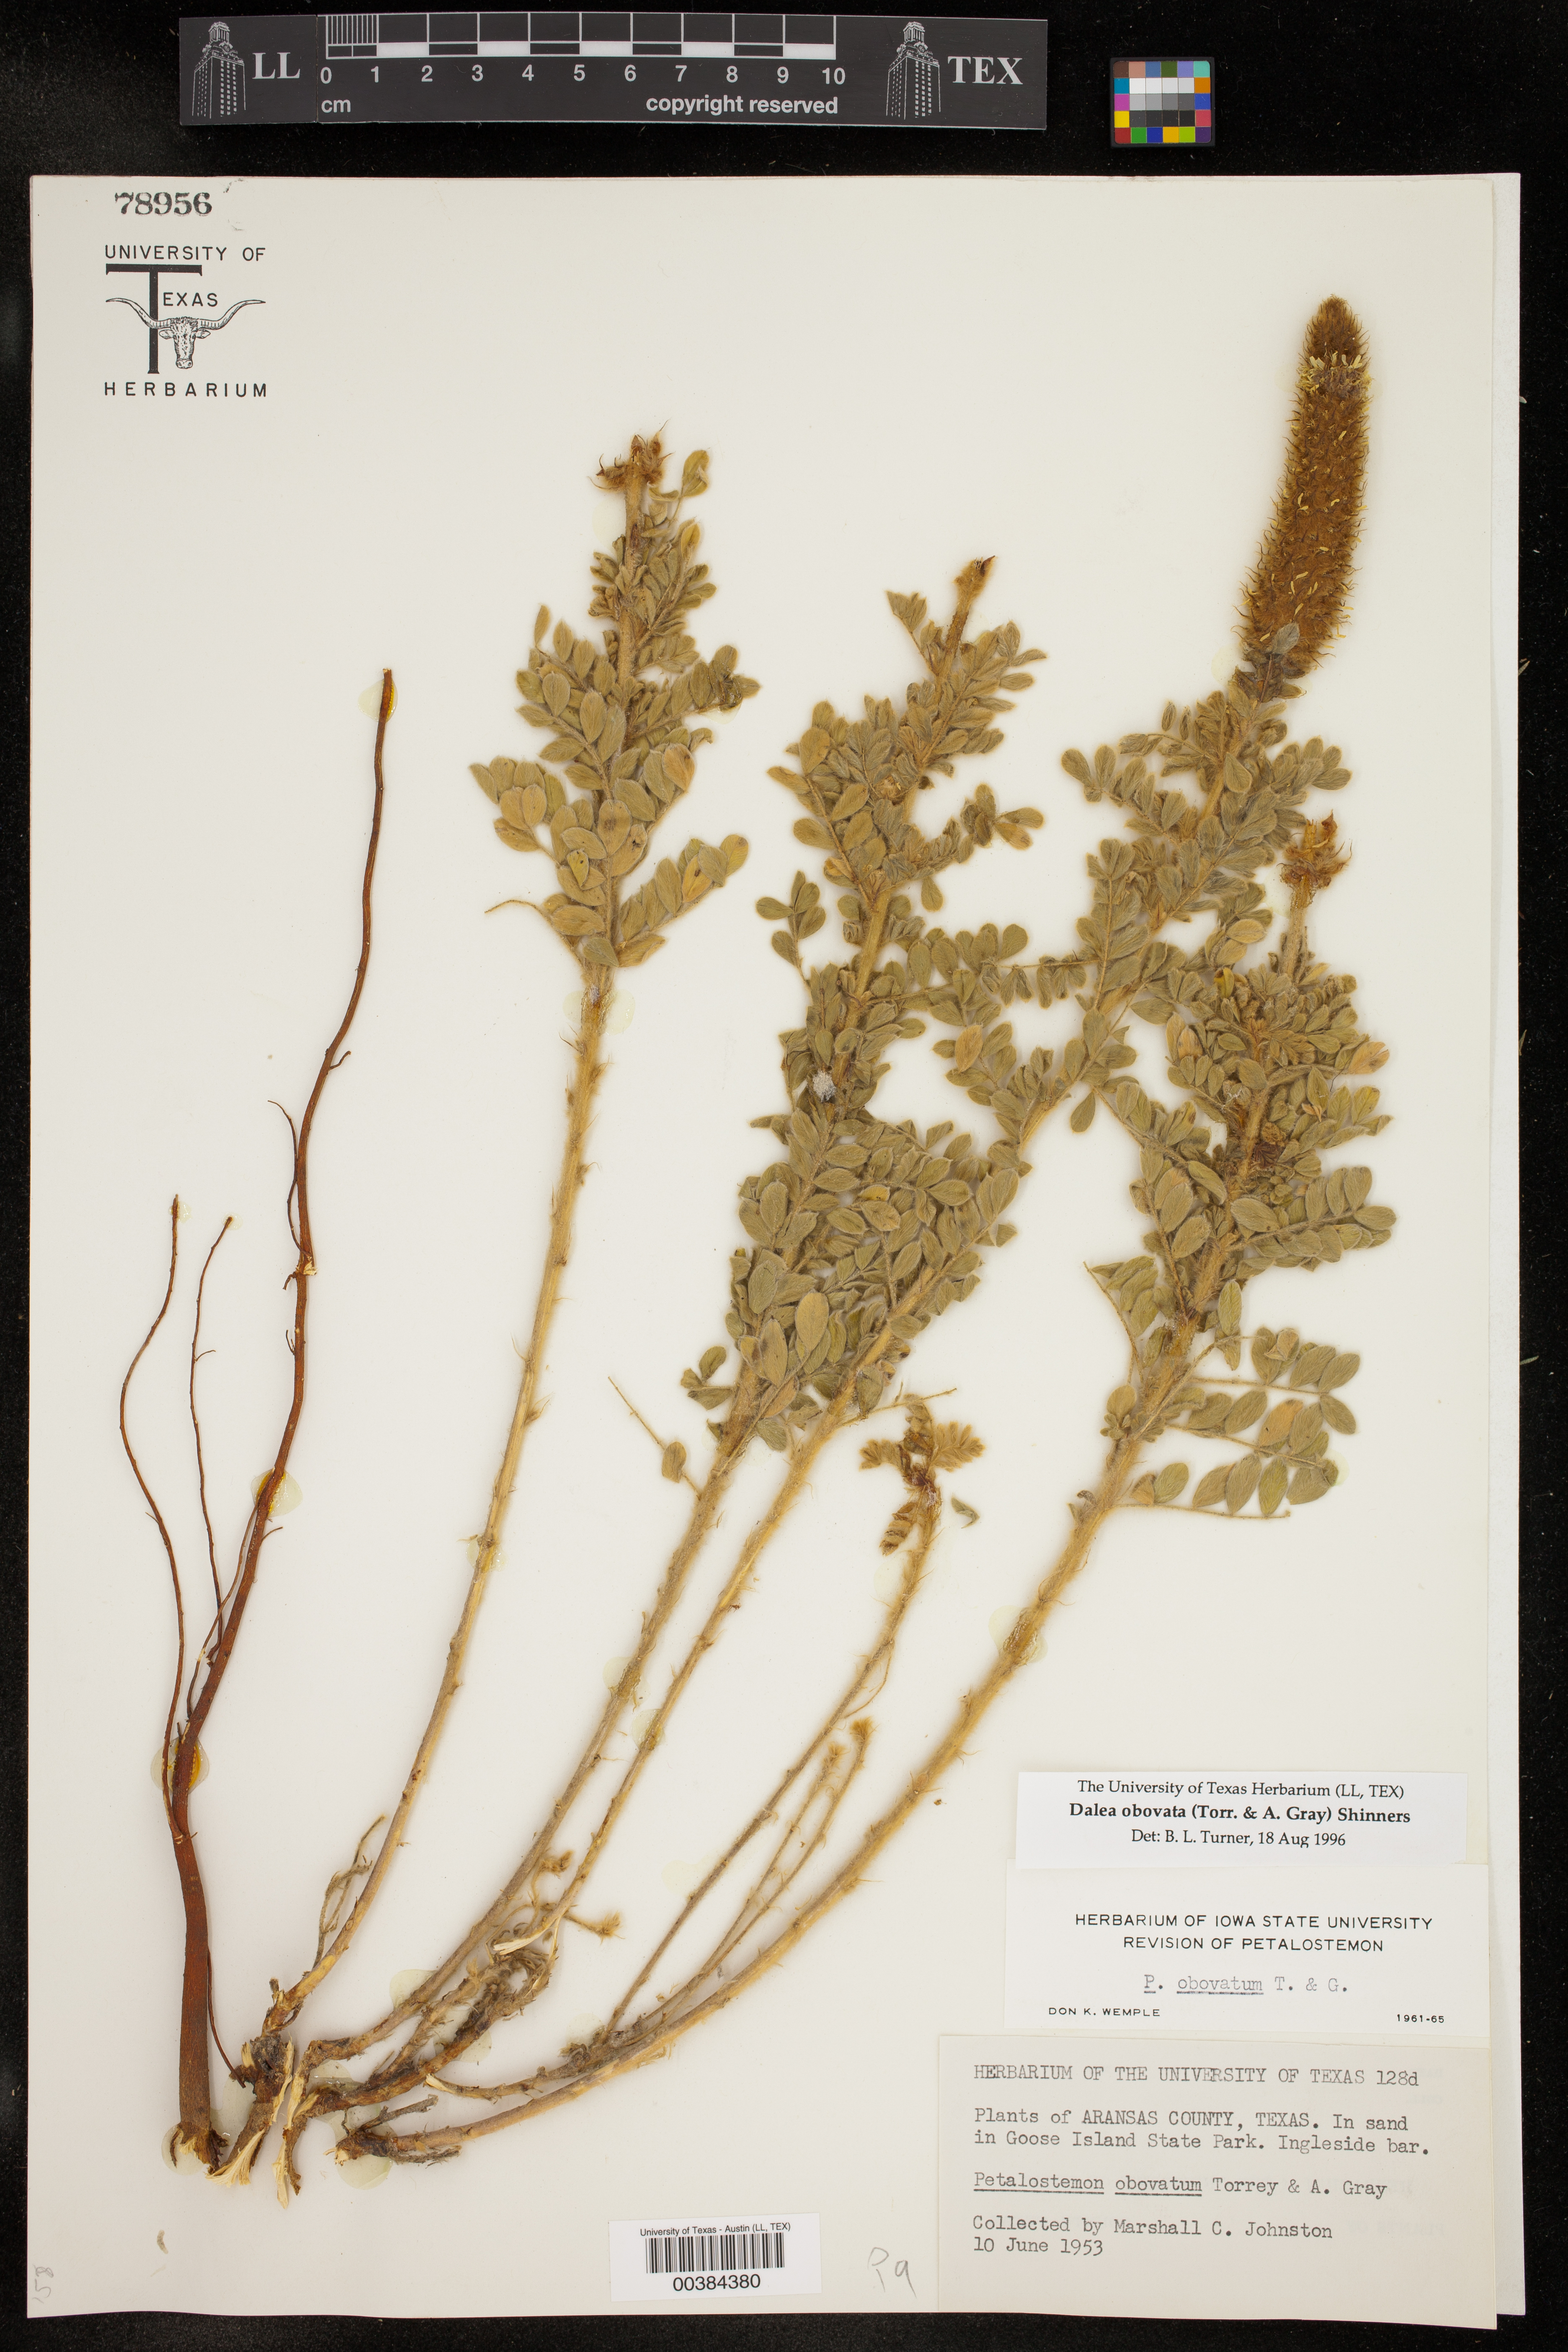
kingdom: Plantae
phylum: Tracheophyta
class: Magnoliopsida
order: Fabales
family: Fabaceae
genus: Dalea
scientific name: Dalea obovata
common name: Pussyfoot
